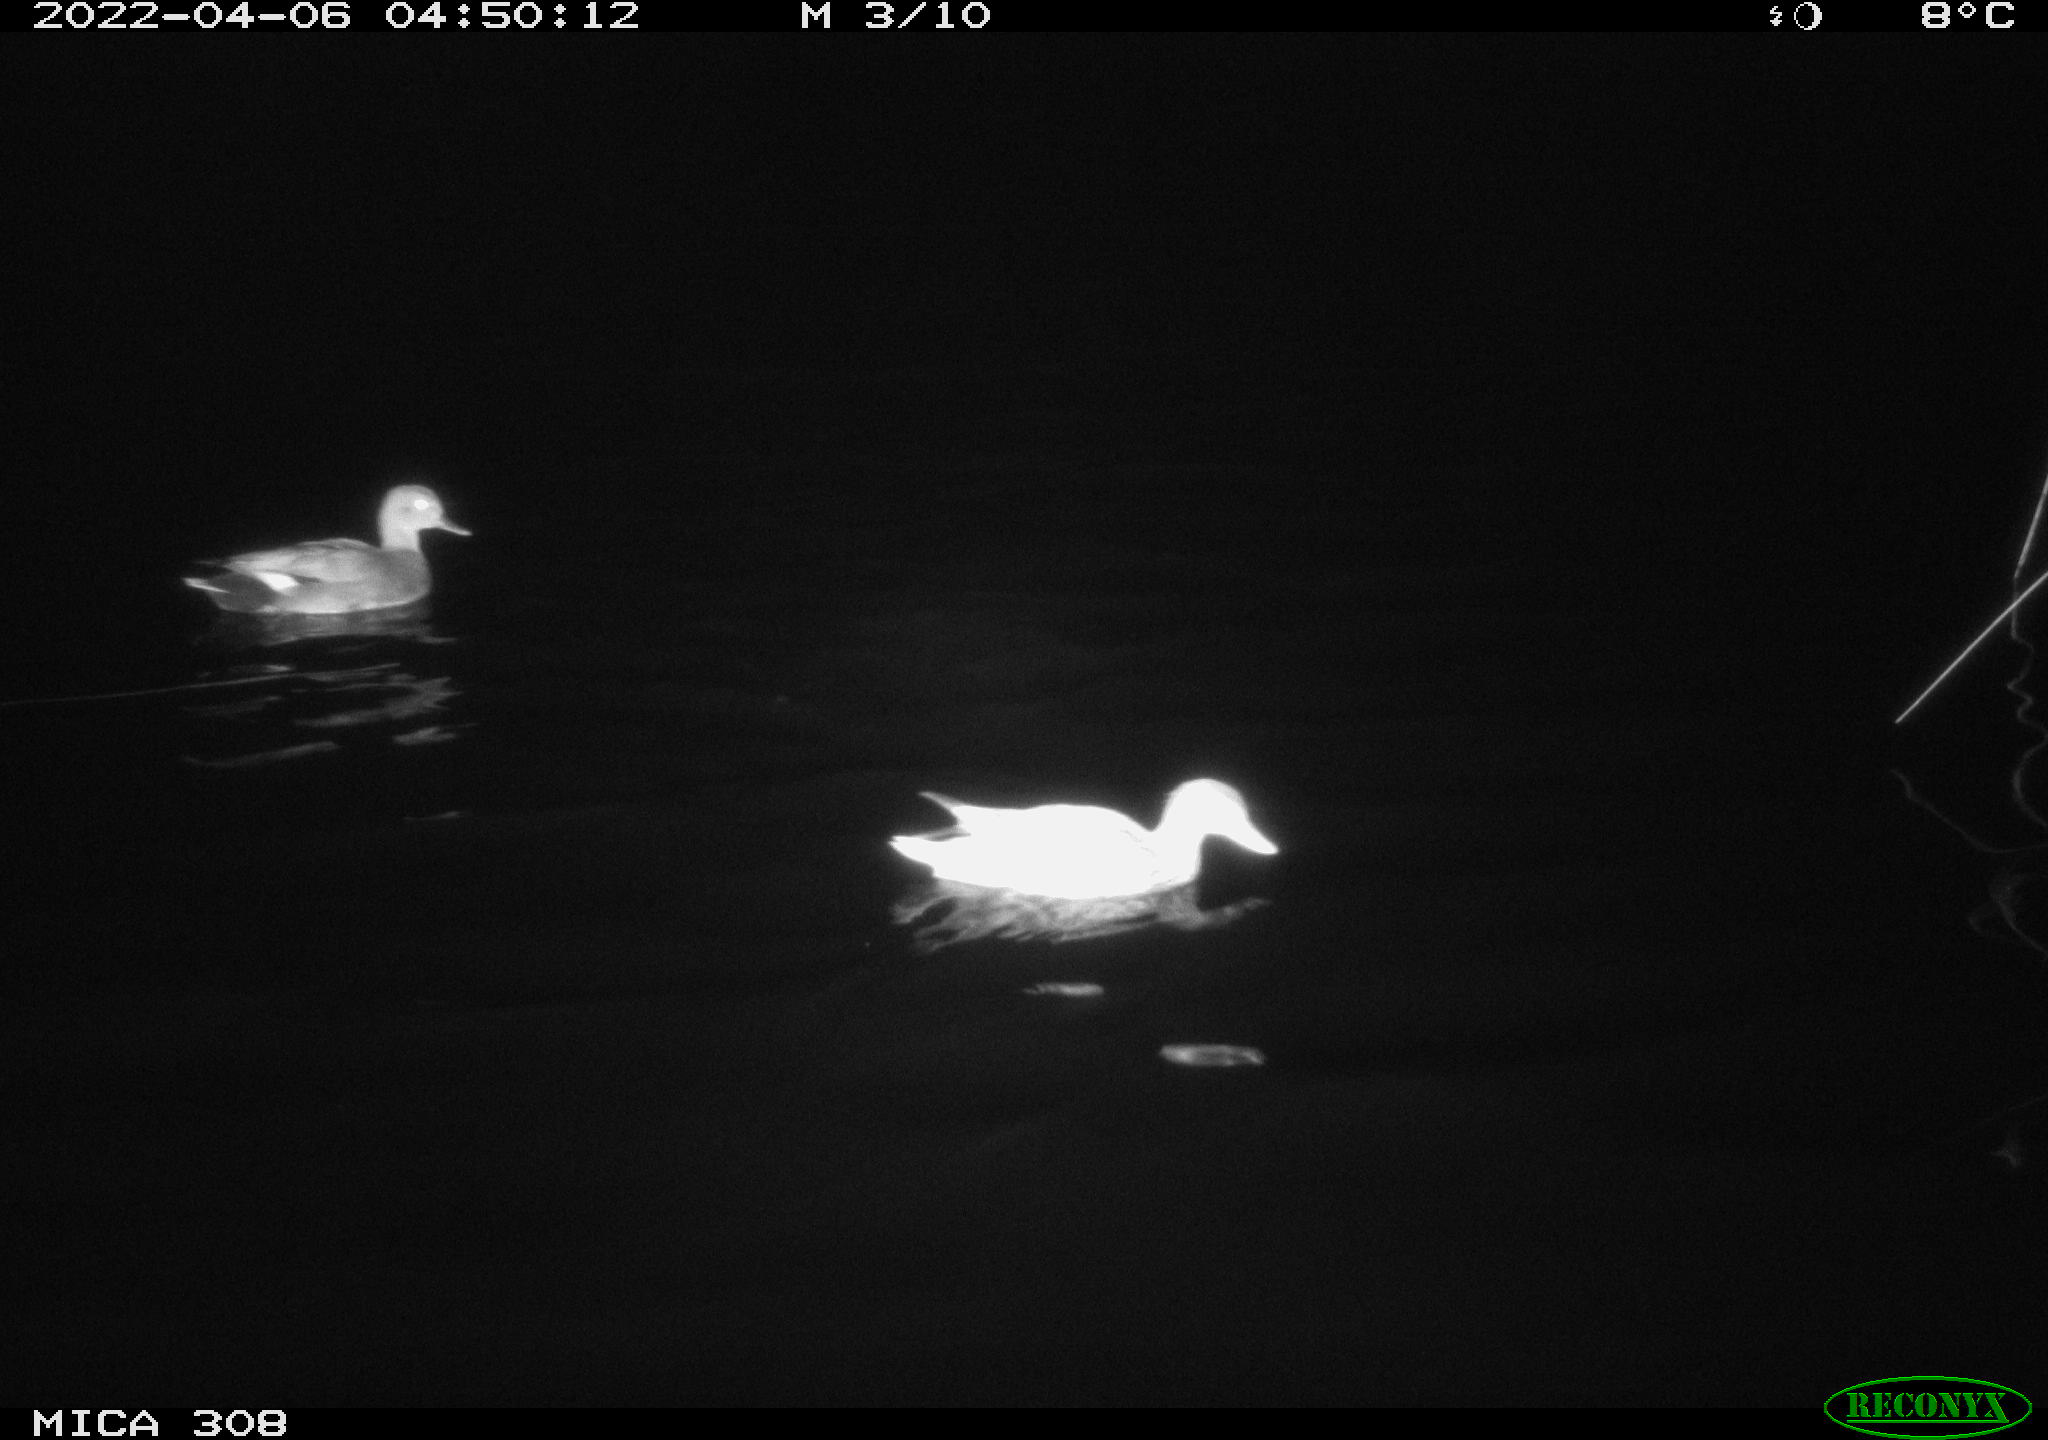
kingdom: Animalia
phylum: Chordata
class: Aves
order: Anseriformes
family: Anatidae
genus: Anas
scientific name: Anas platyrhynchos
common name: Mallard
